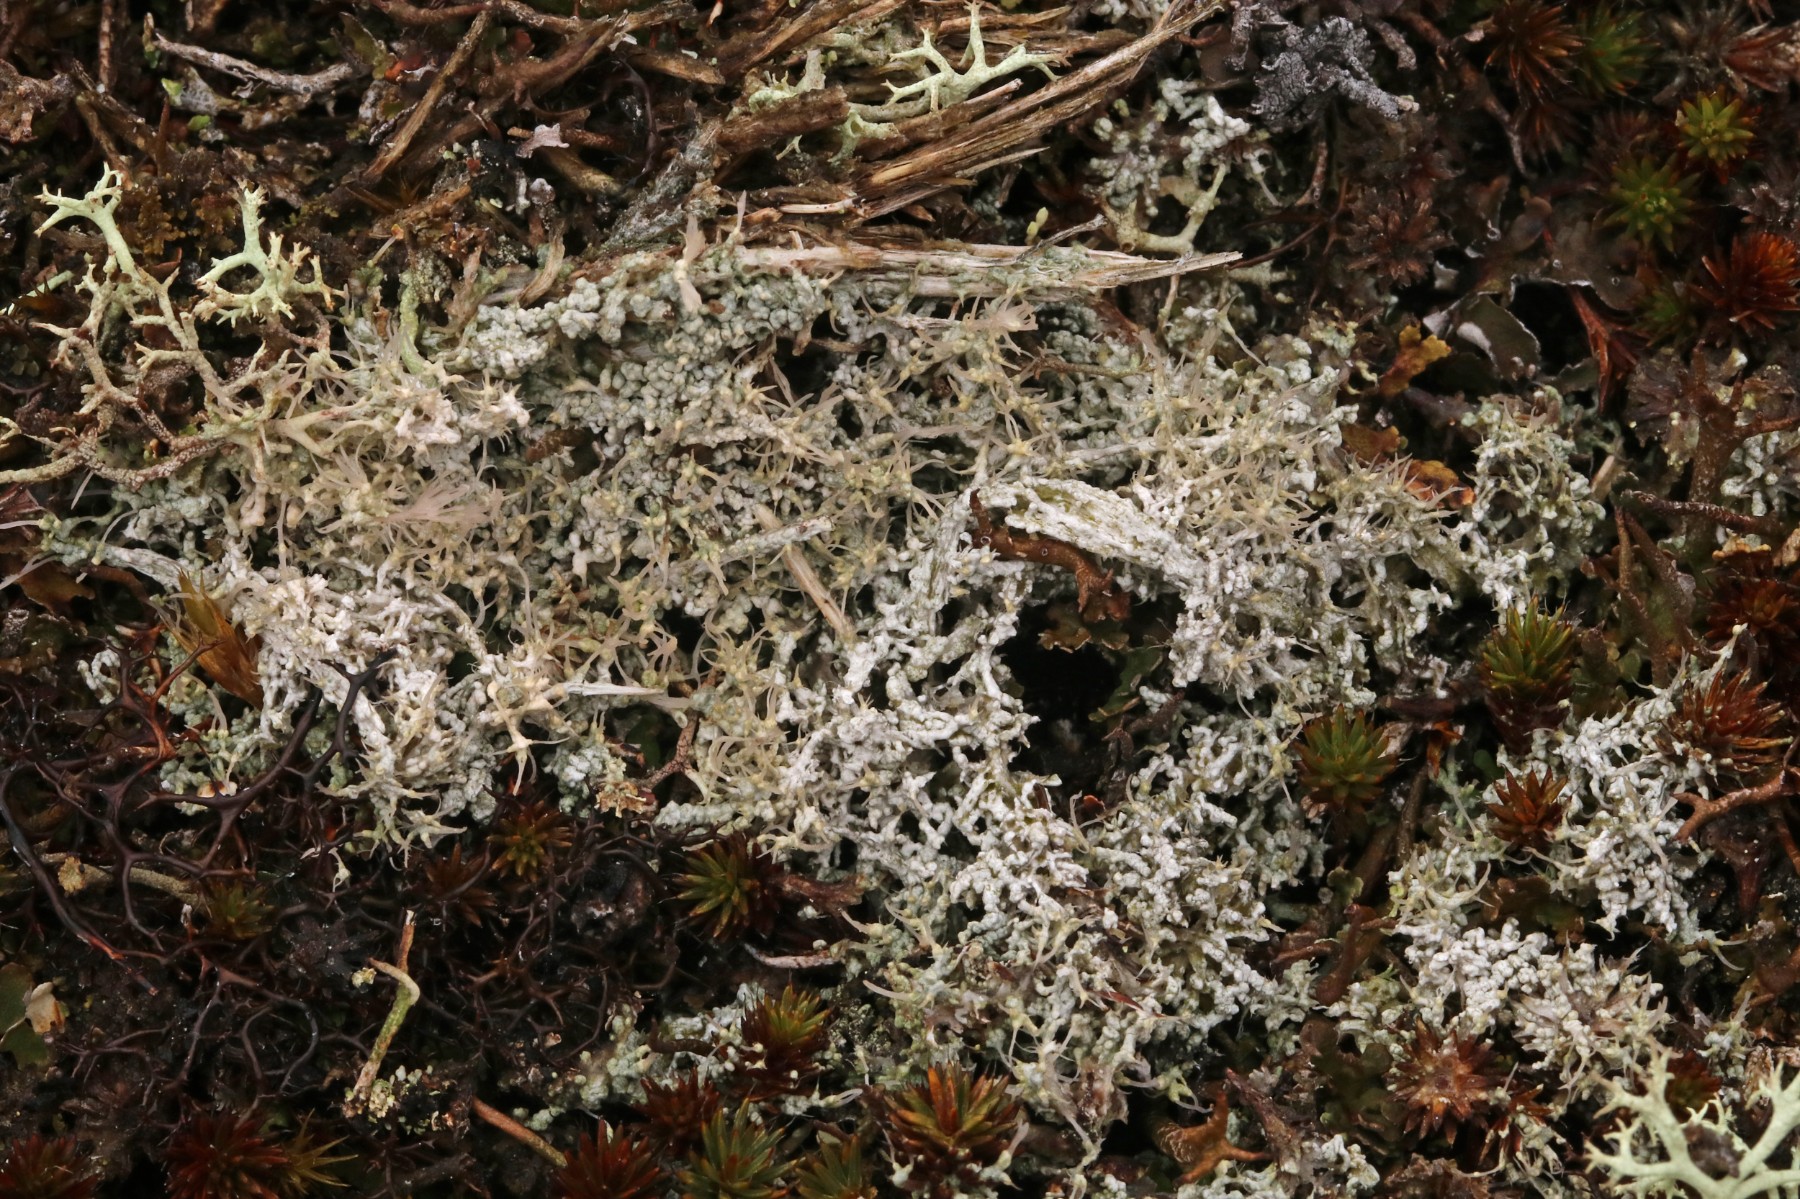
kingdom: Fungi
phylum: Ascomycota
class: Lecanoromycetes
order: Pertusariales
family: Ochrolechiaceae
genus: Ochrolechia
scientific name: Ochrolechia frigida
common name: fjeld-blegskivelav
